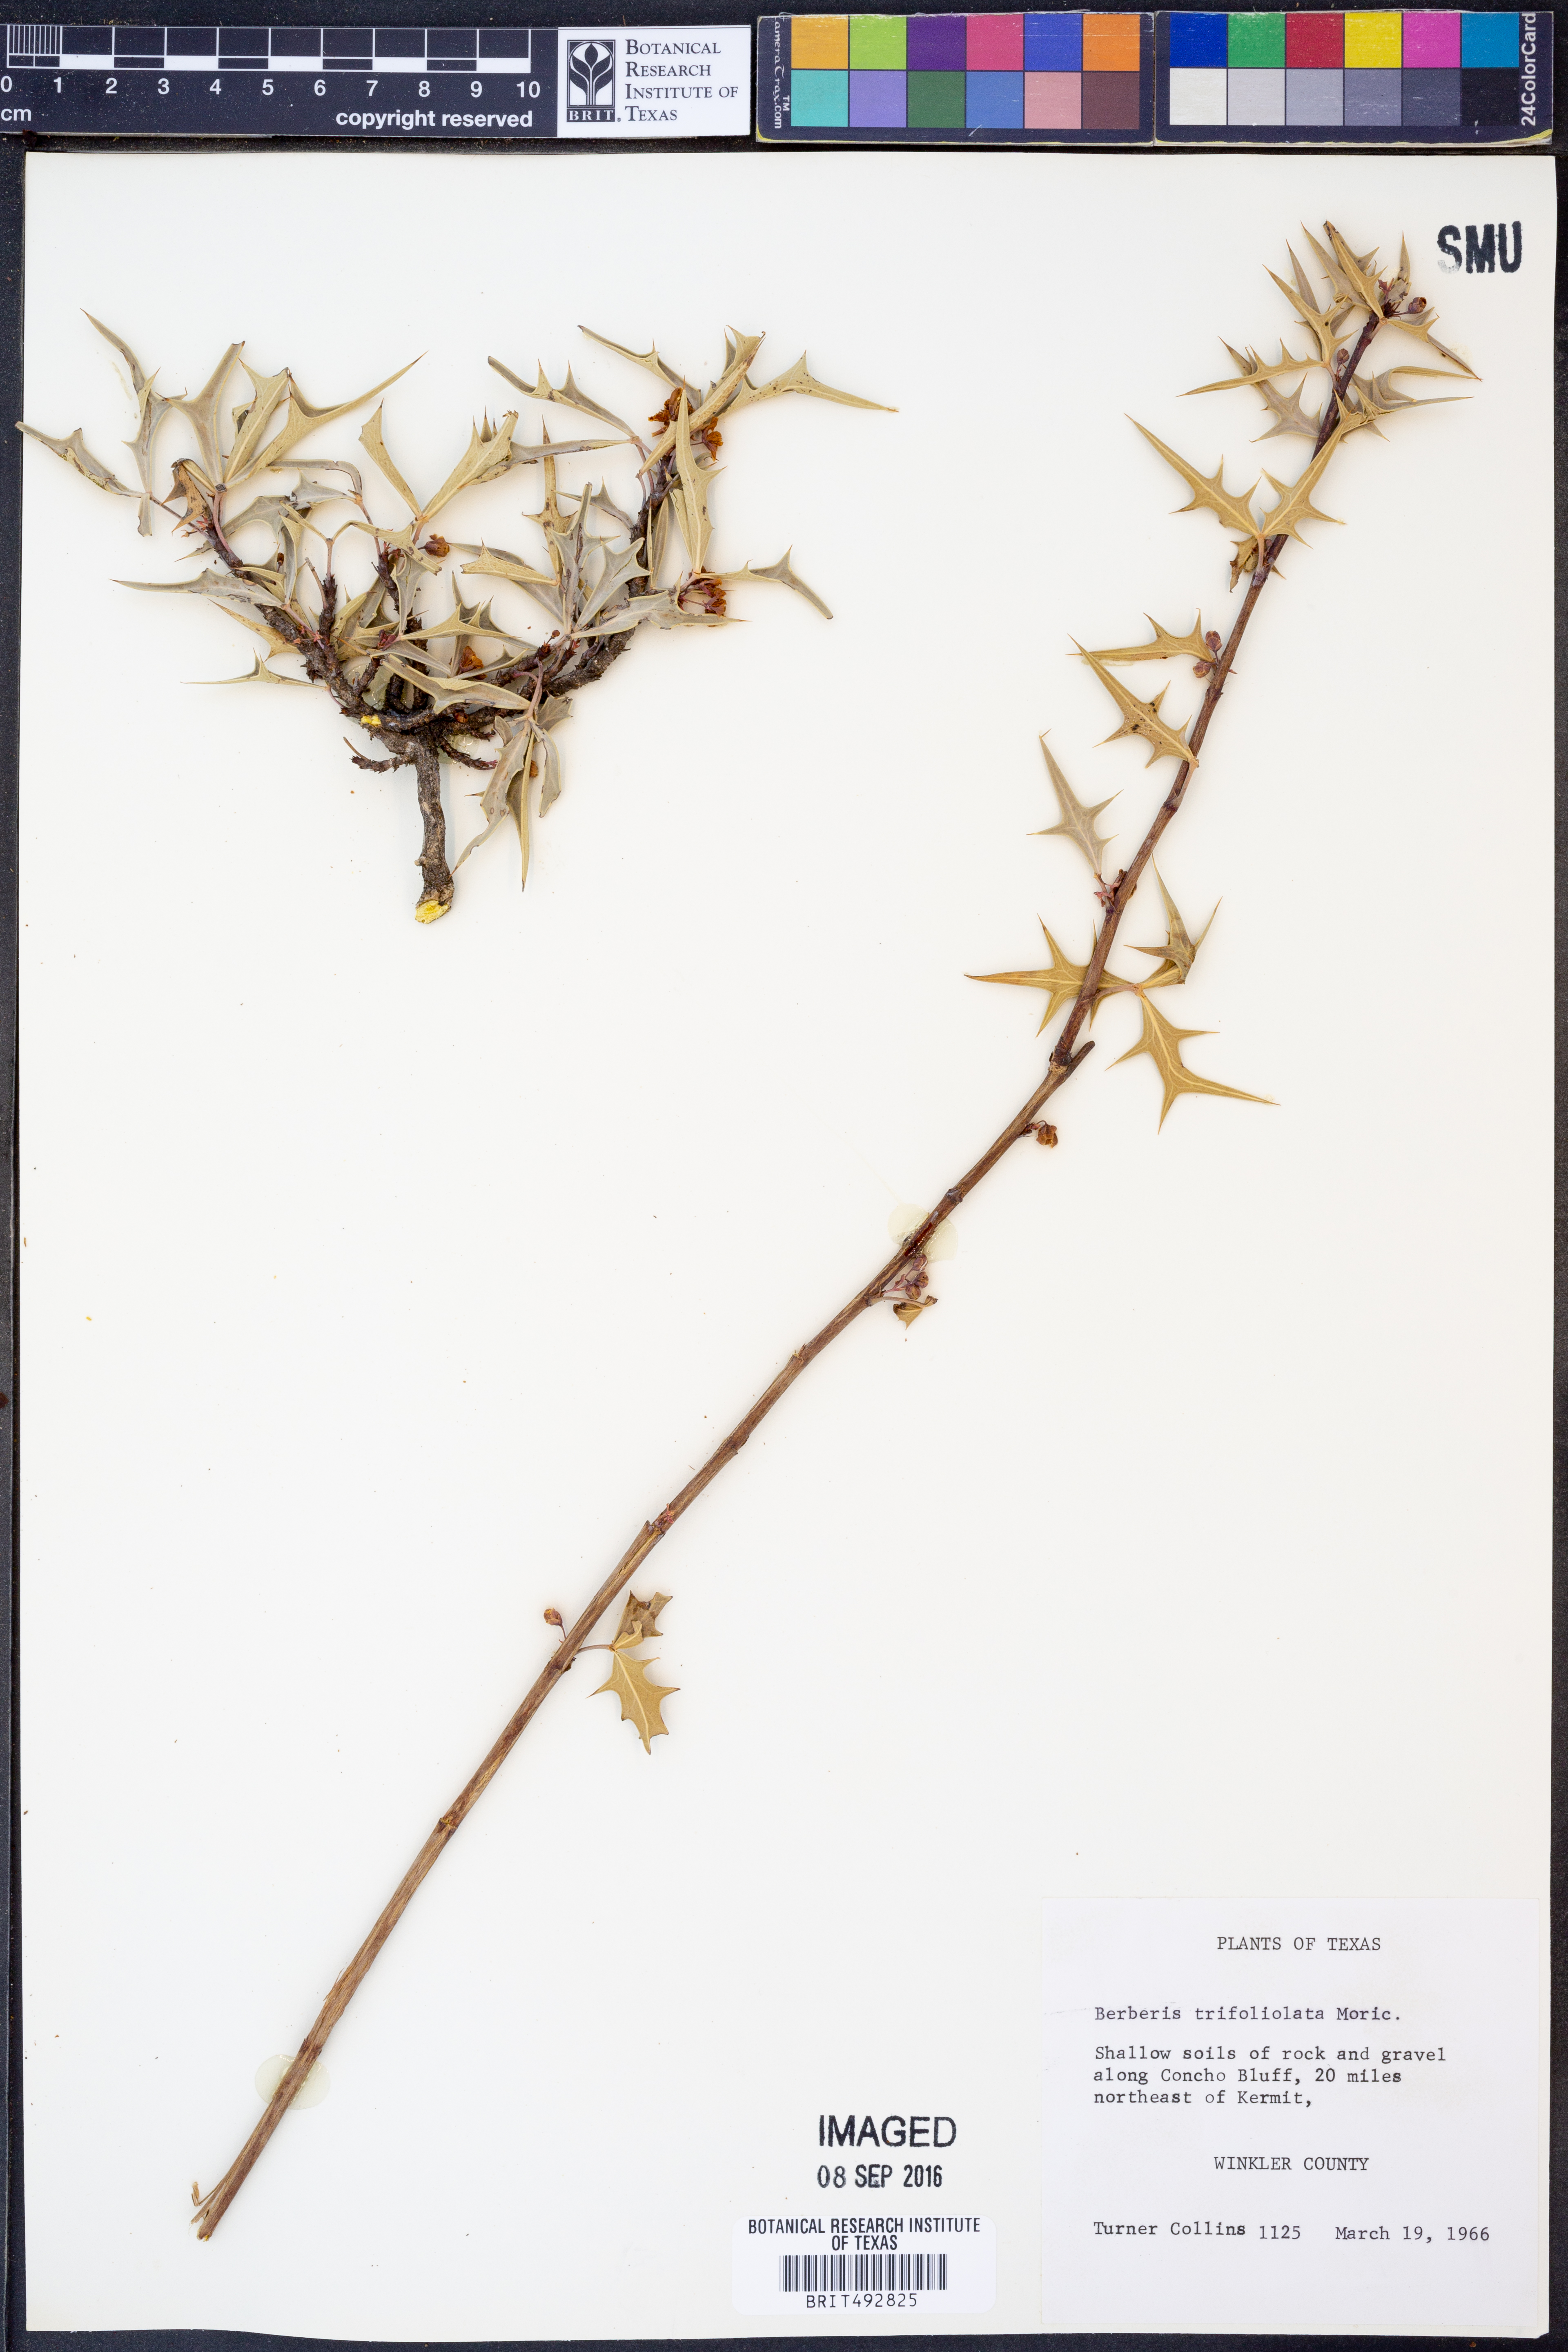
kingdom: Plantae
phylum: Tracheophyta
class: Magnoliopsida
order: Ranunculales
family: Berberidaceae
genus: Alloberberis
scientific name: Alloberberis trifoliolata
